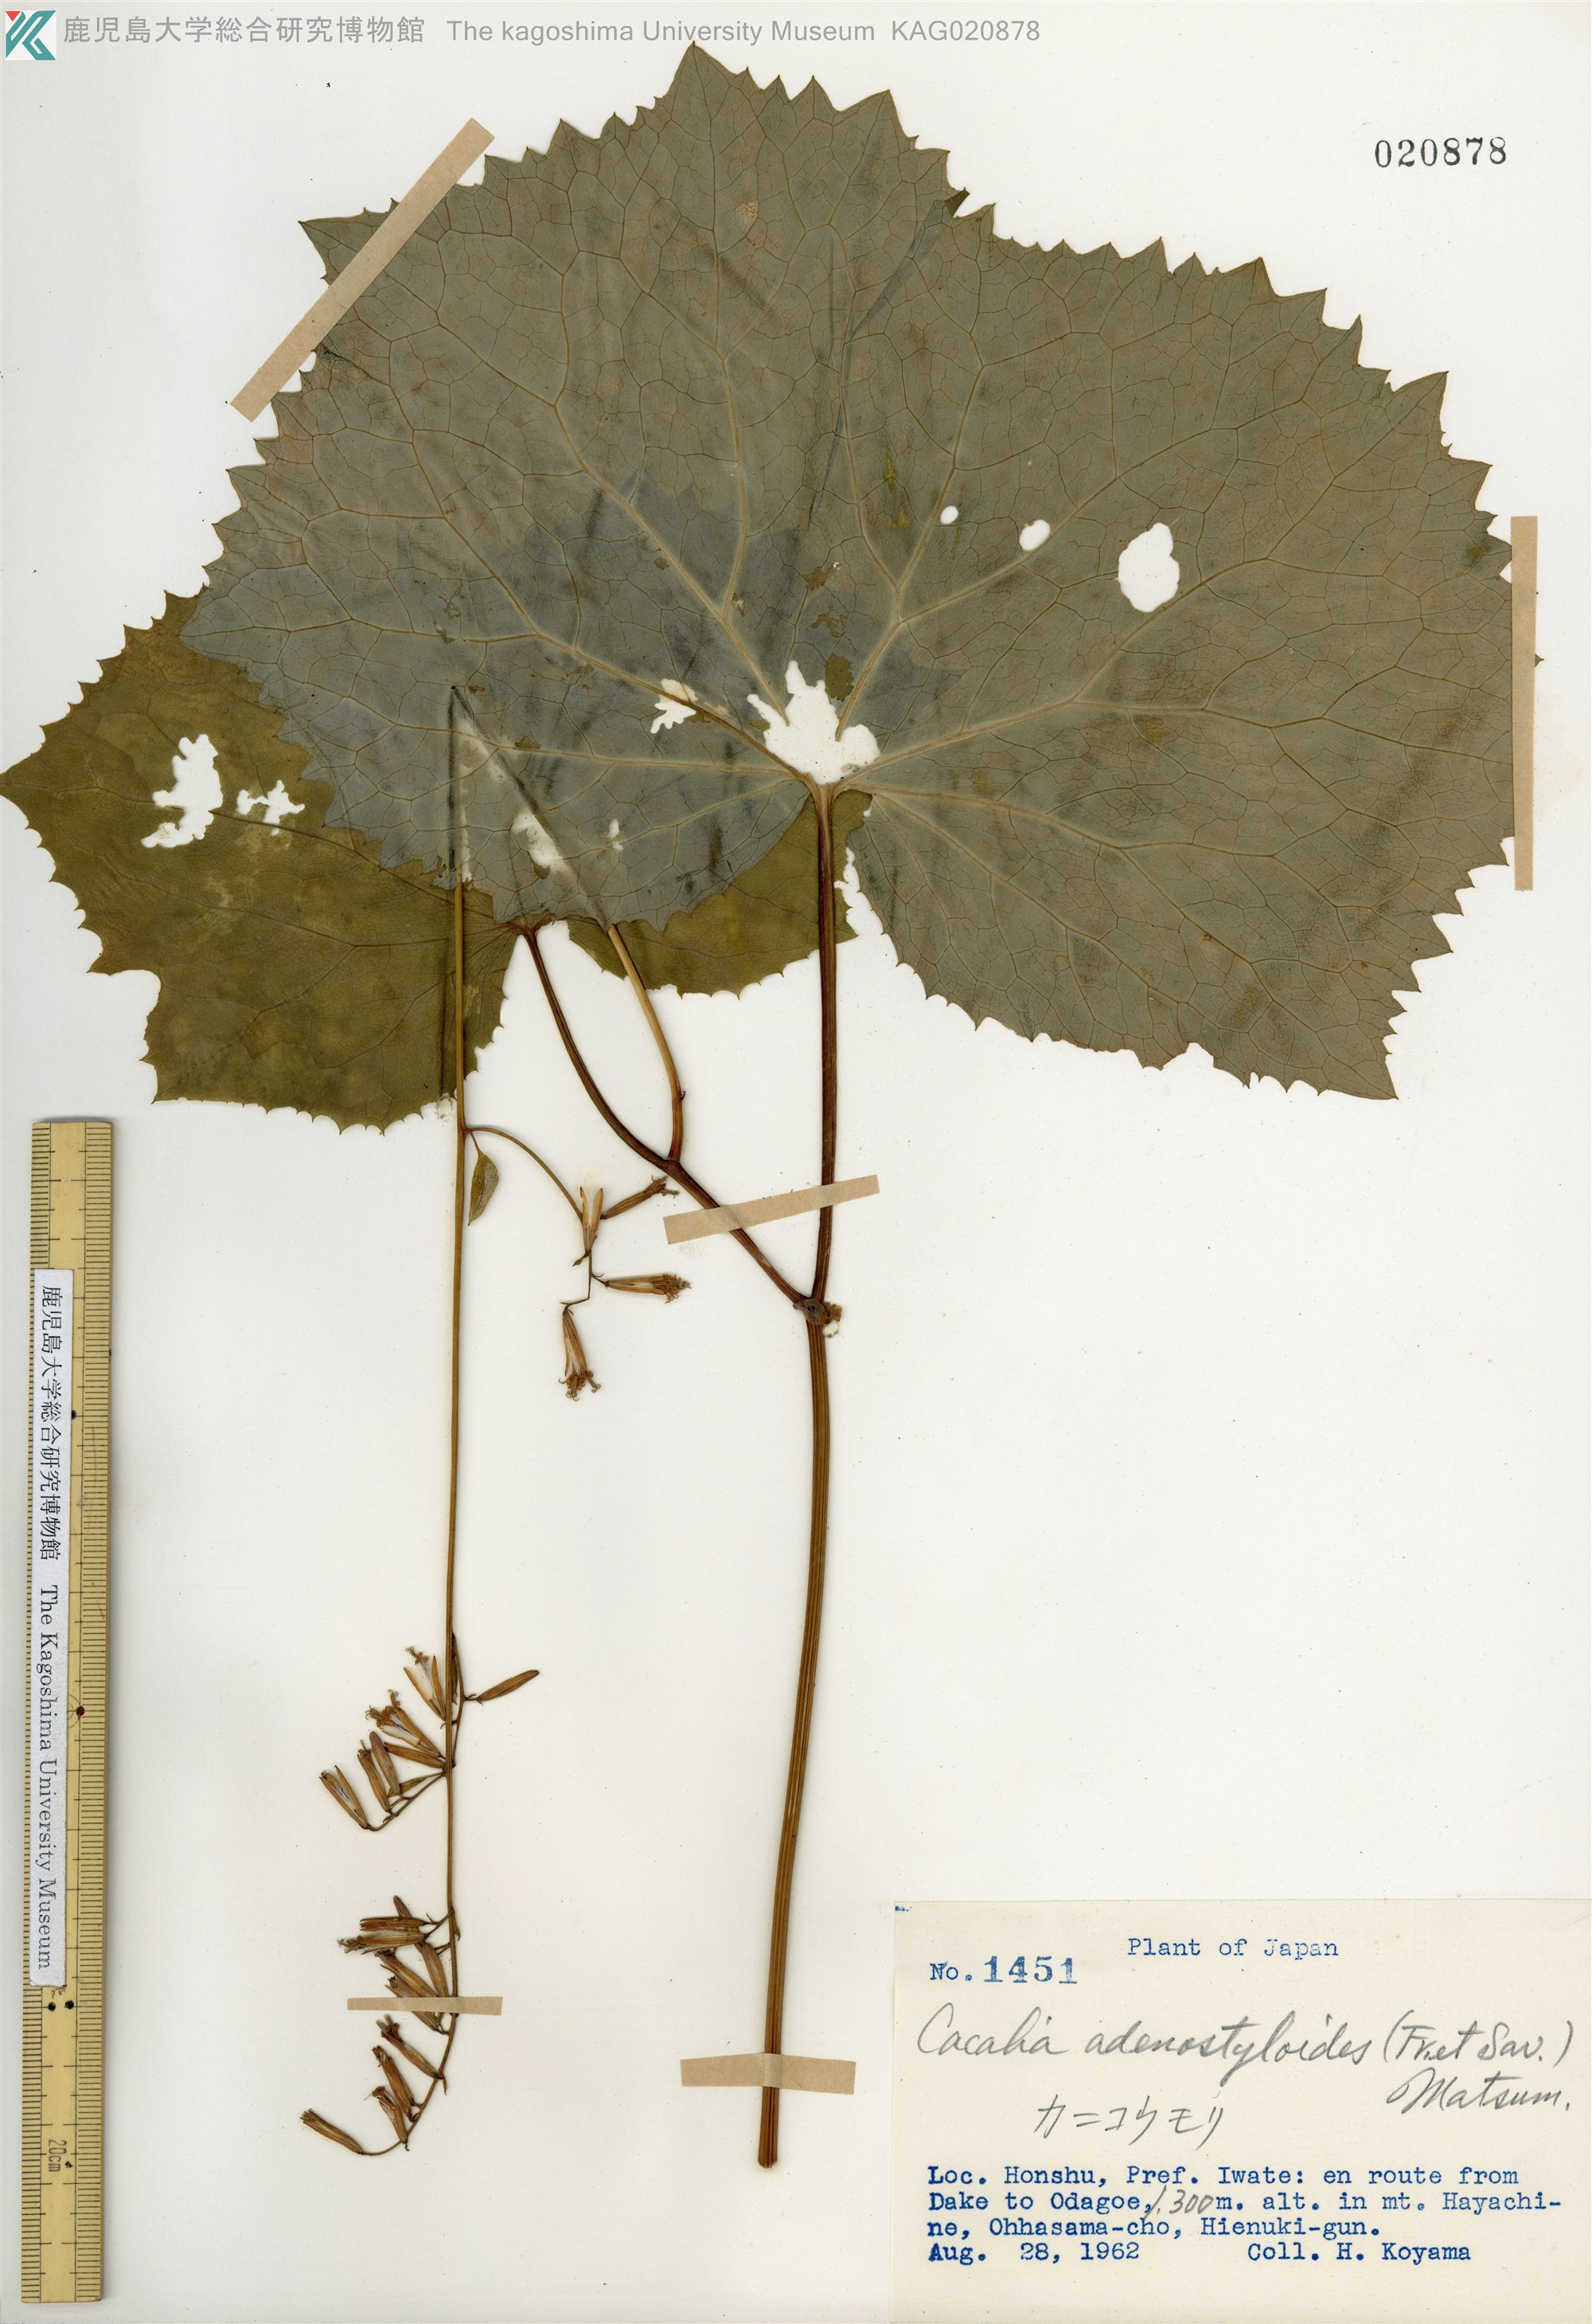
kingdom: Plantae
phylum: Tracheophyta
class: Magnoliopsida
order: Asterales
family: Asteraceae
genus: Parasenecio
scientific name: Parasenecio farfarifolius
